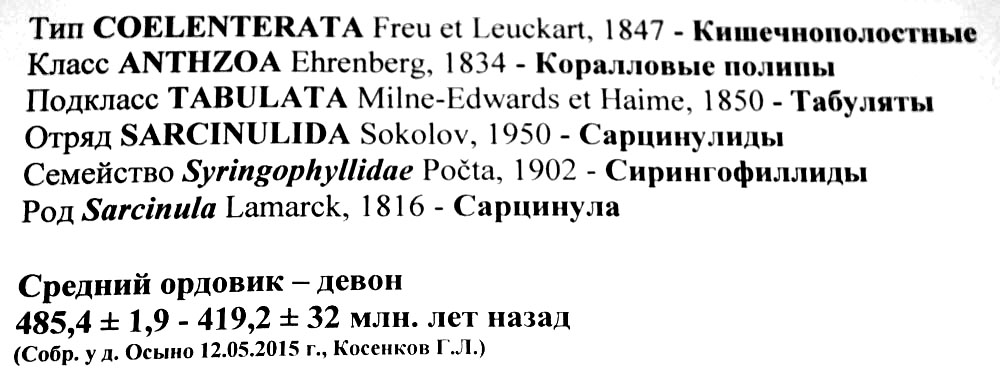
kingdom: Animalia
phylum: Cnidaria
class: Anthozoa
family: Syringophyllidae
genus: Sarcinula
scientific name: Sarcinula
